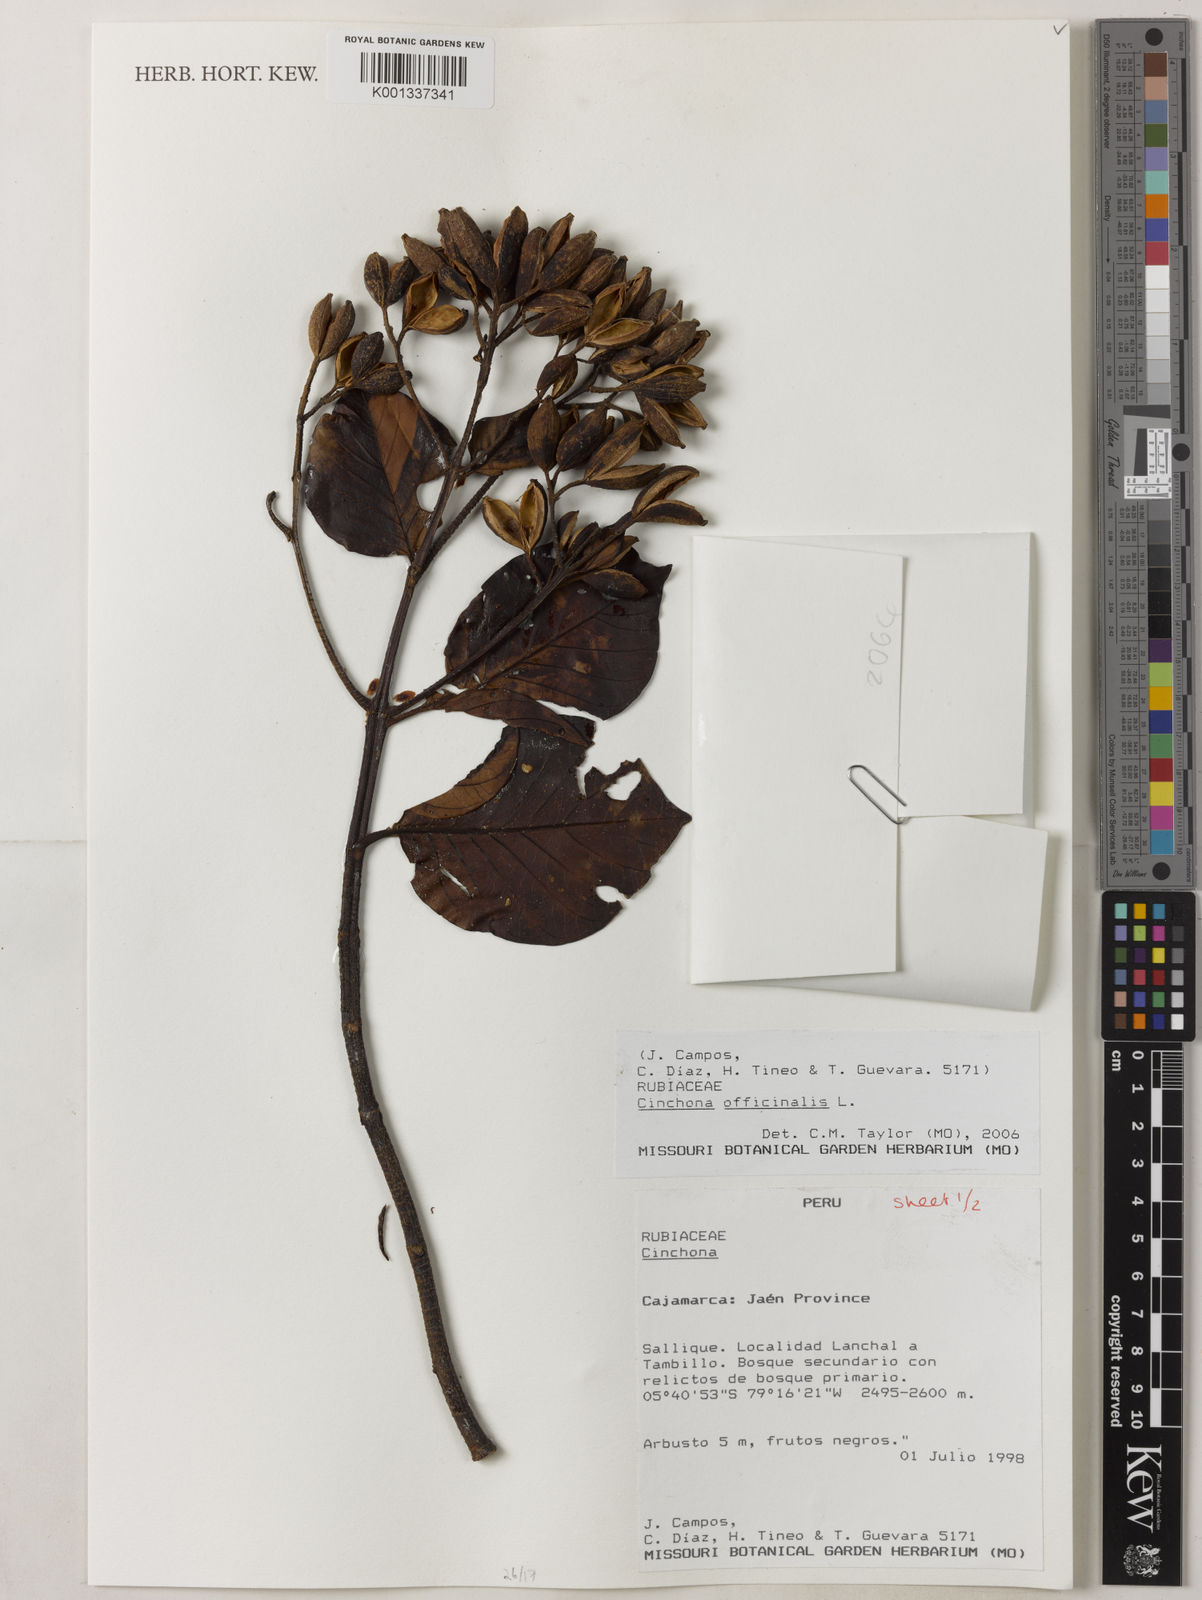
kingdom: Plantae
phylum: Tracheophyta
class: Magnoliopsida
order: Gentianales
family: Rubiaceae
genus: Cinchona
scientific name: Cinchona officinalis
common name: Lojabark
